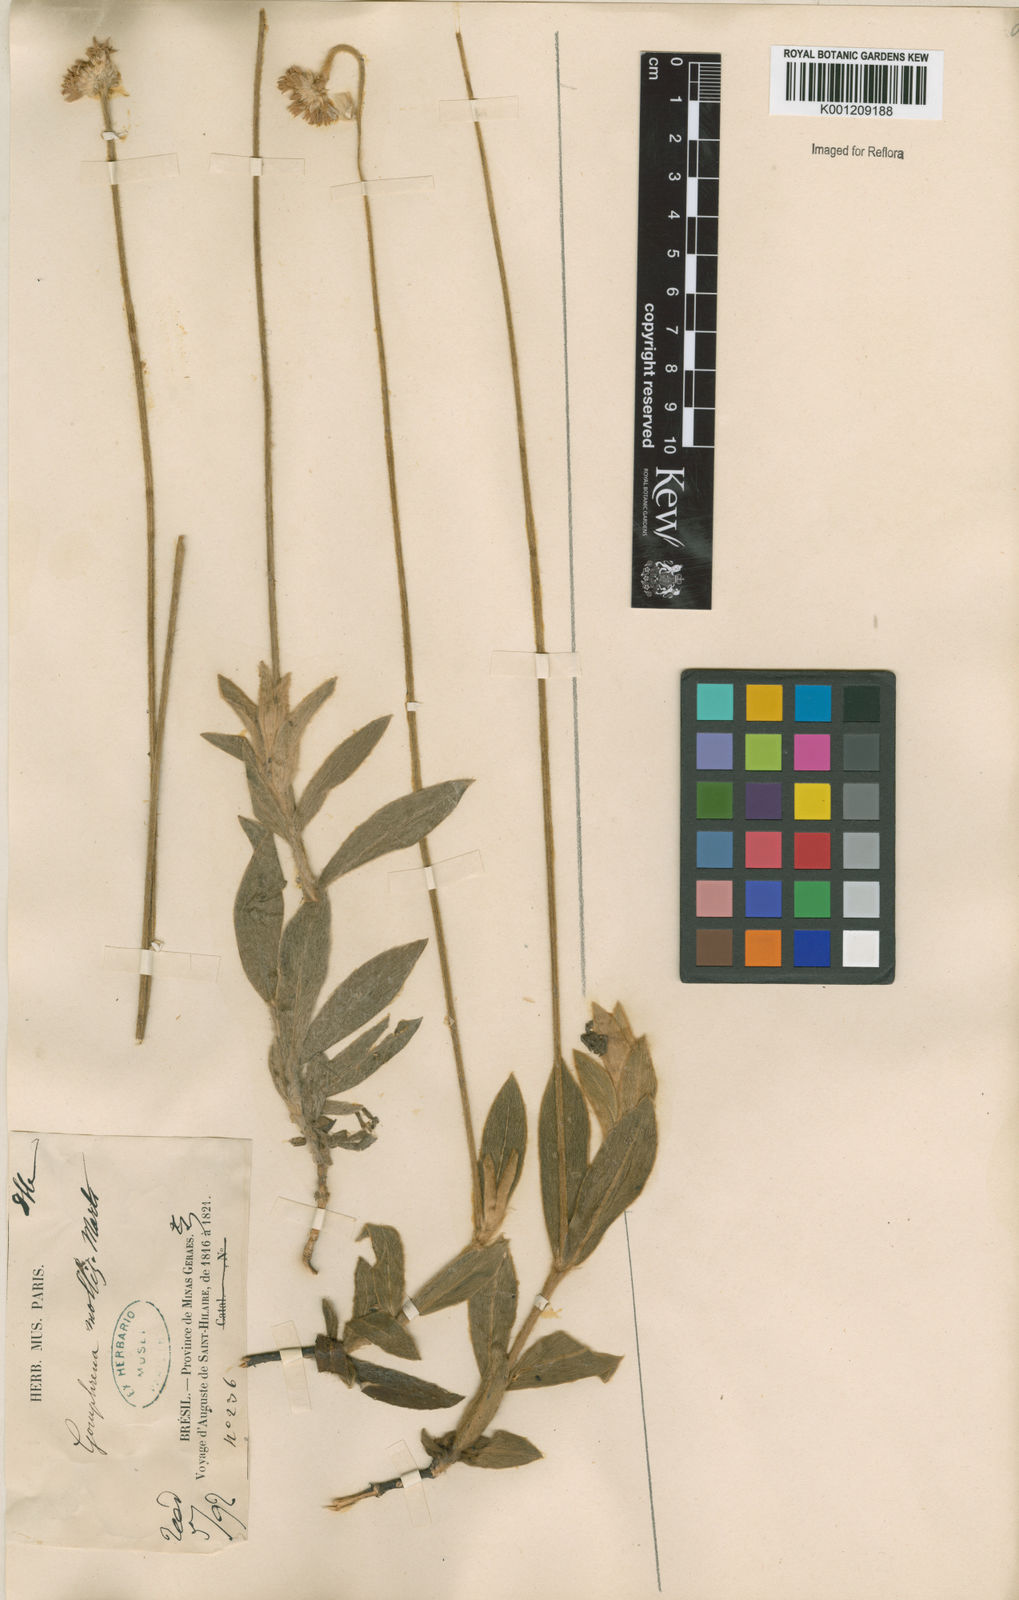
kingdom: Plantae
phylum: Tracheophyta
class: Magnoliopsida
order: Caryophyllales
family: Amaranthaceae
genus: Gomphrena
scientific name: Gomphrena mollis
